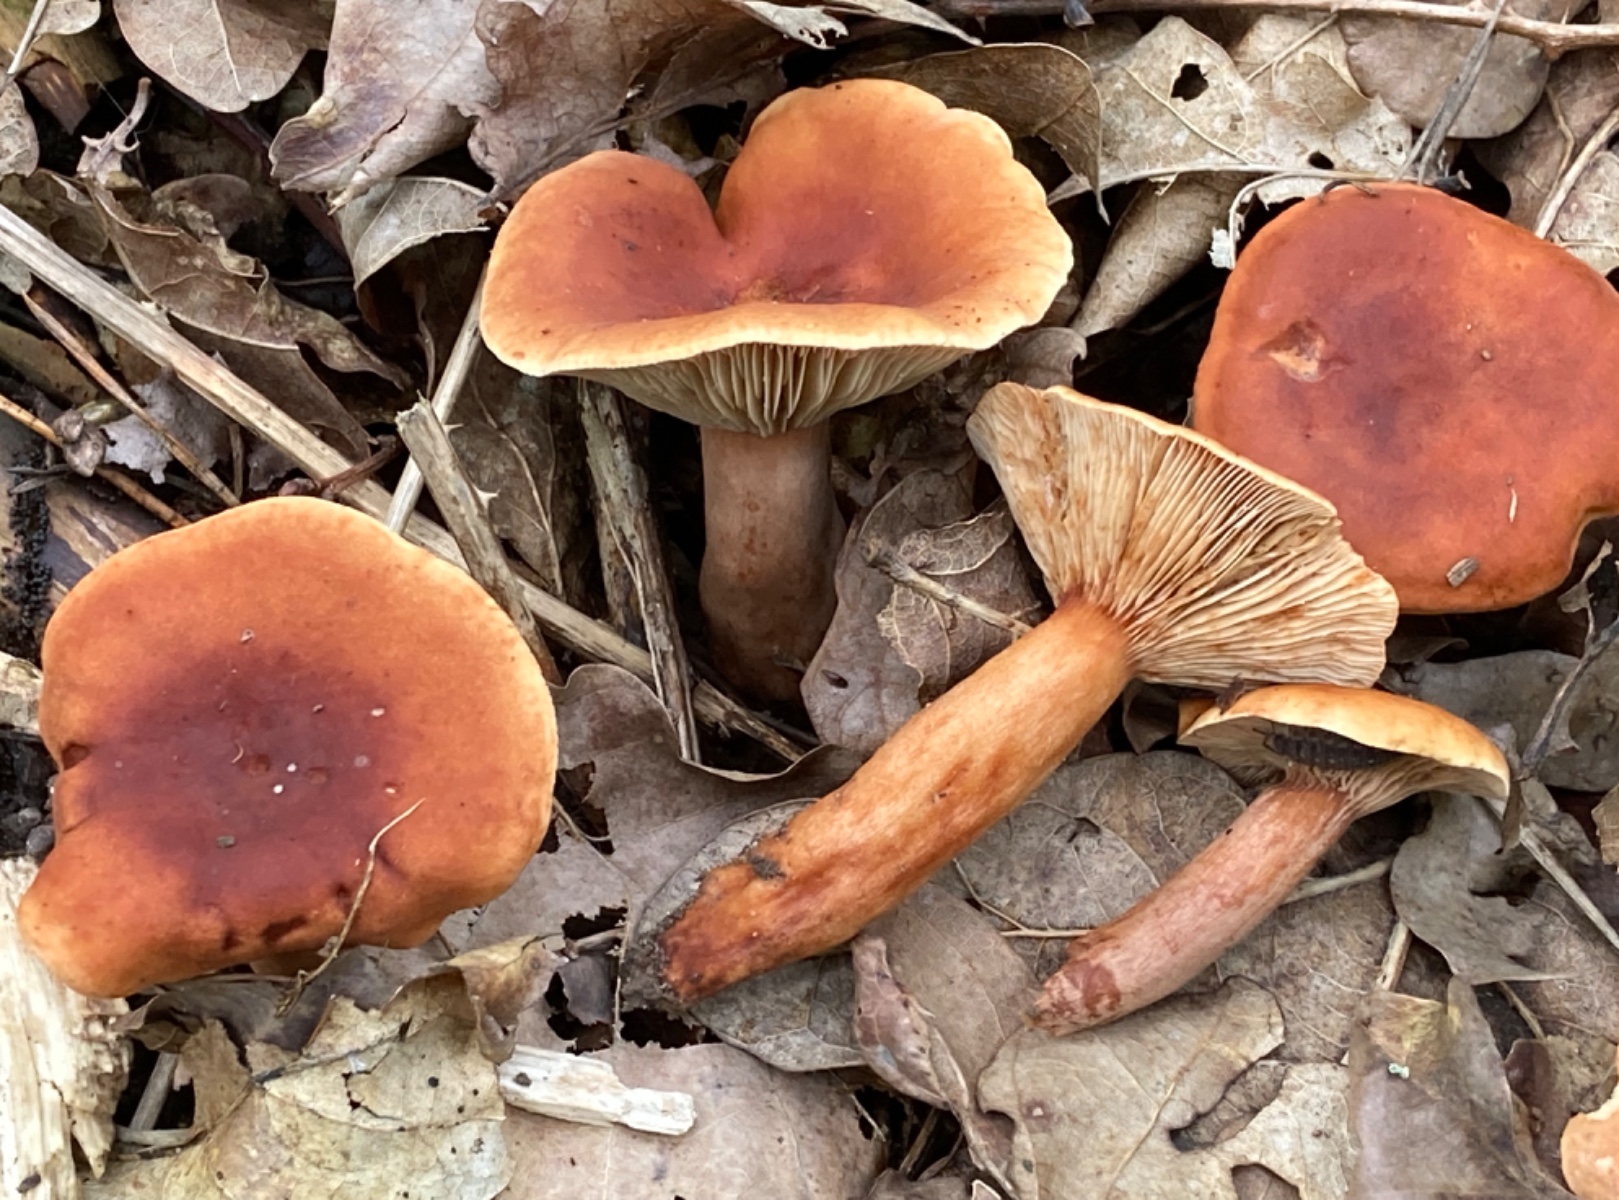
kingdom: Fungi
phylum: Basidiomycota
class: Agaricomycetes
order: Russulales
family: Russulaceae
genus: Lactarius
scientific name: Lactarius fulvissimus
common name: ræve-mælkehat
